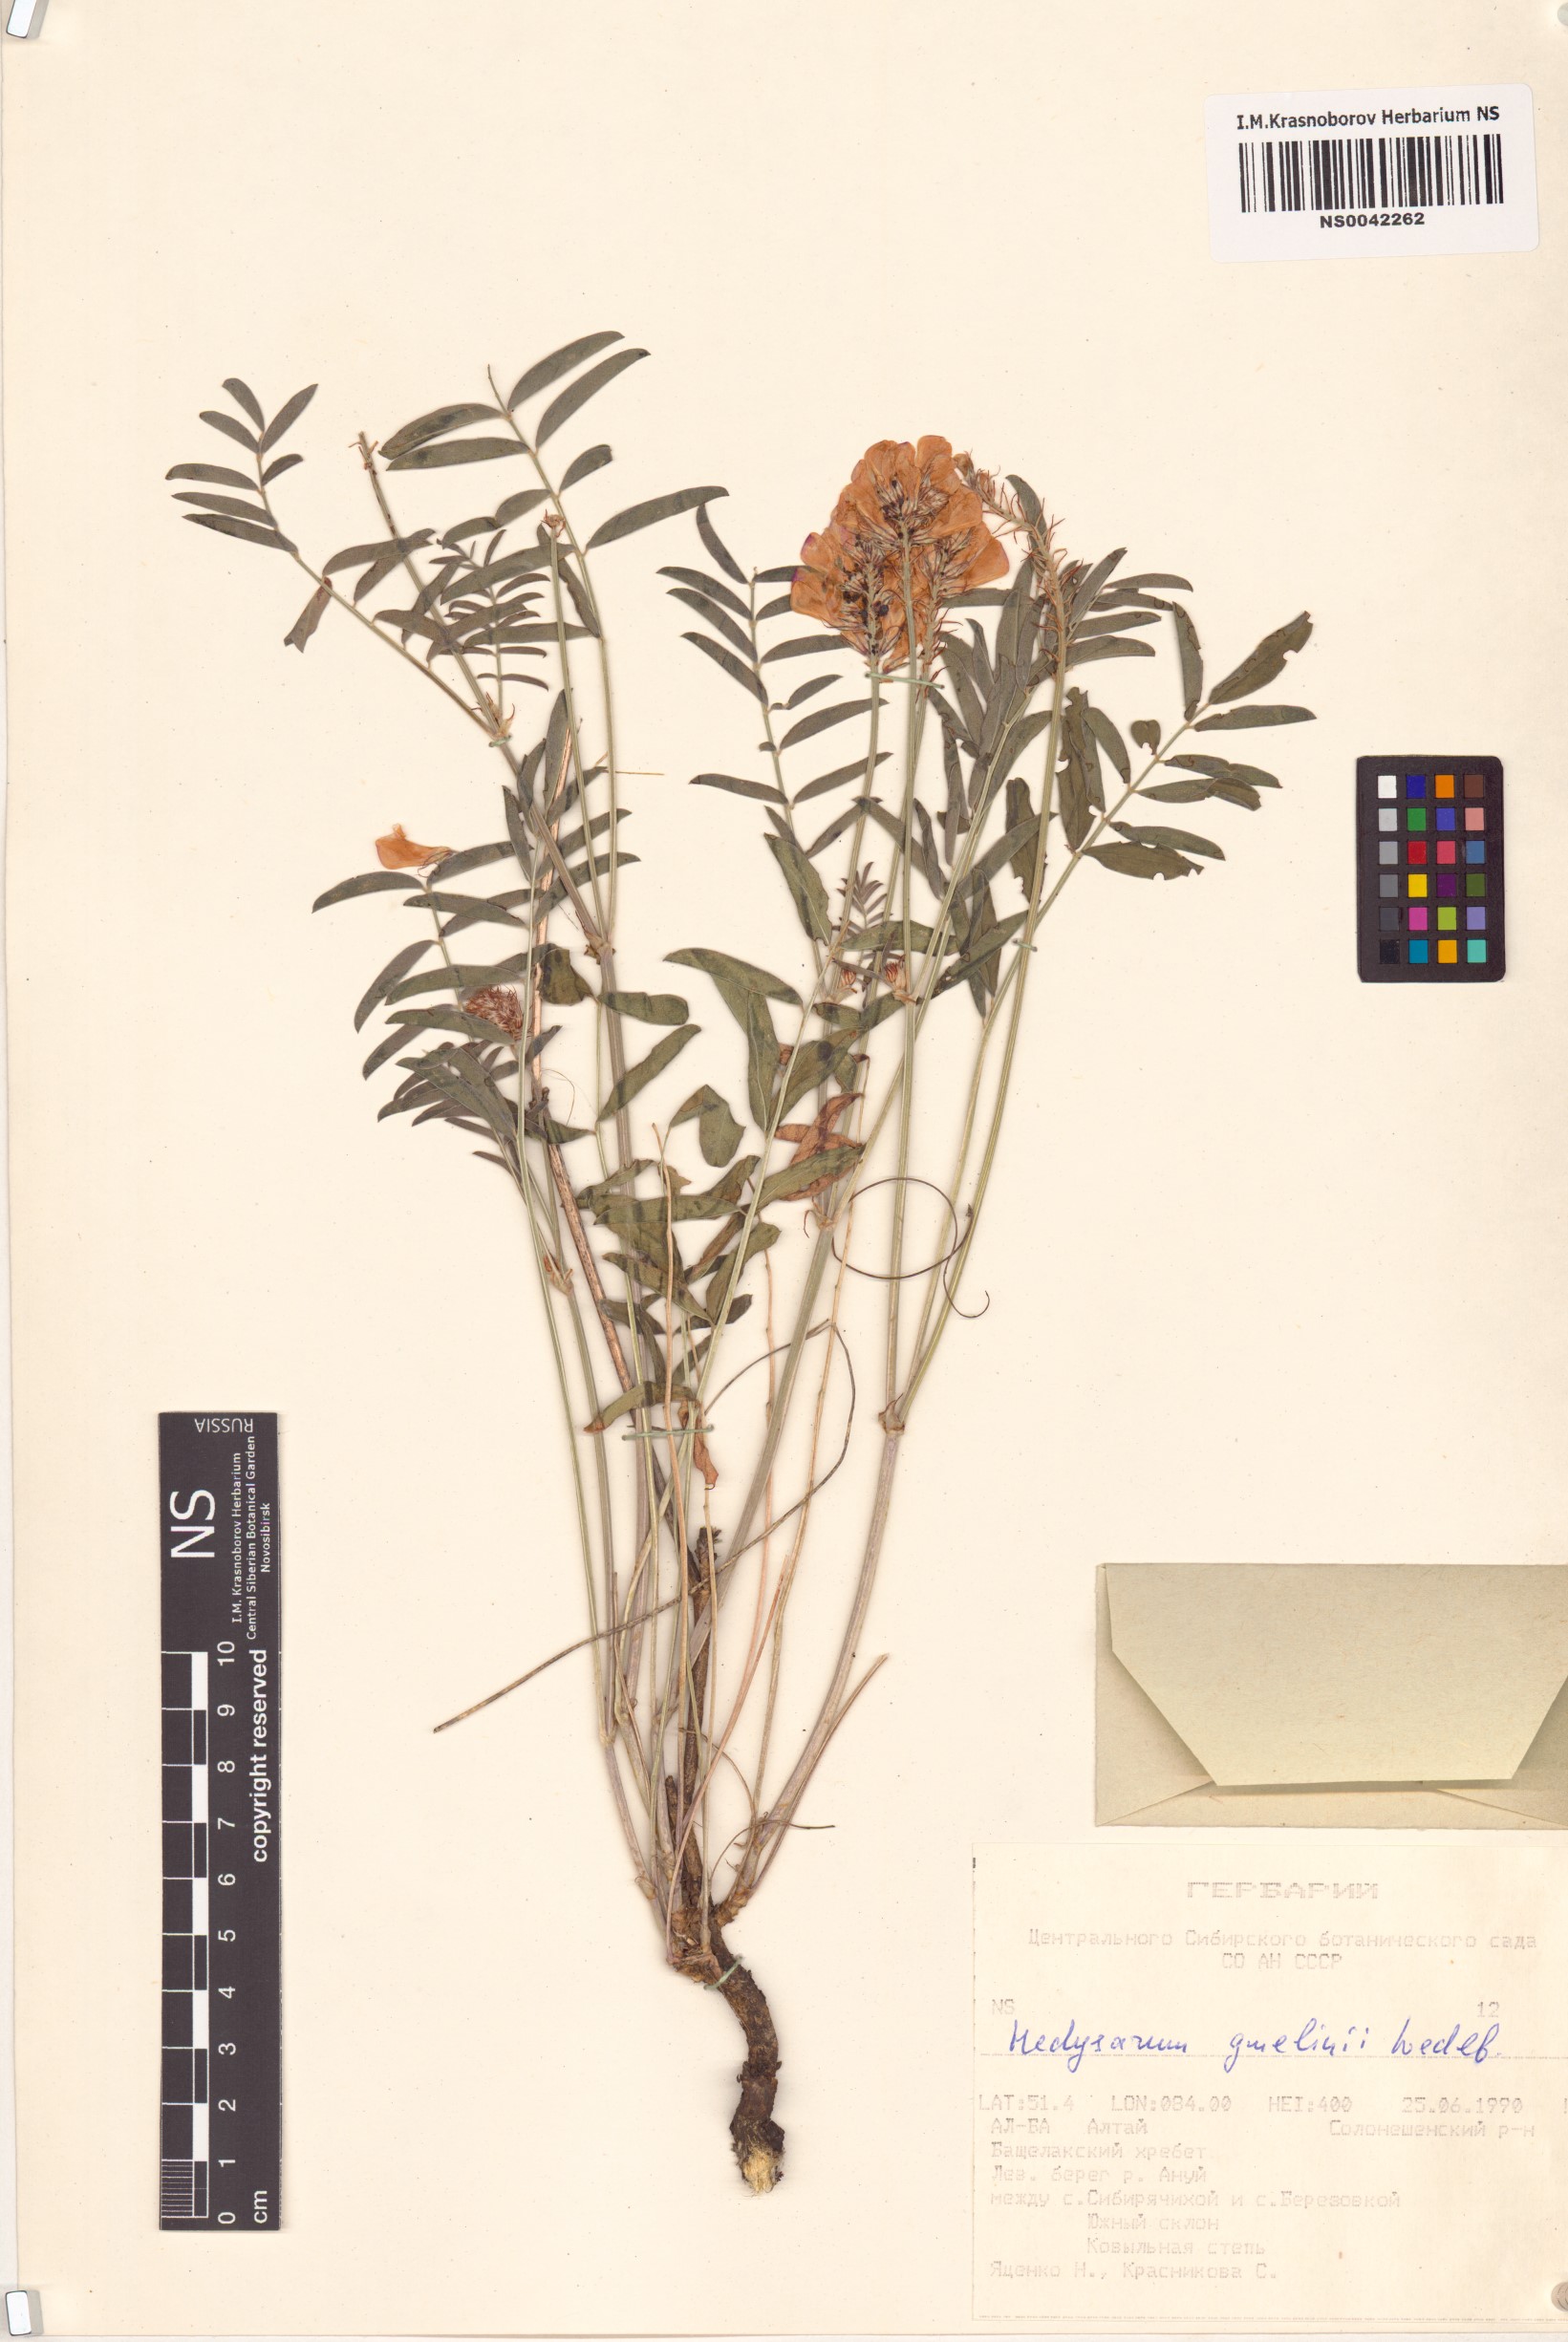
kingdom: Plantae
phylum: Tracheophyta
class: Magnoliopsida
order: Fabales
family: Fabaceae
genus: Hedysarum
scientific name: Hedysarum gmelinii
